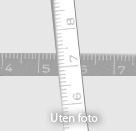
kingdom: Plantae
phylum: Bryophyta
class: Bryopsida
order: Splachnales
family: Splachnaceae
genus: Tetraplodon
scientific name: Tetraplodon pallidus
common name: Pale nitrogen moss
